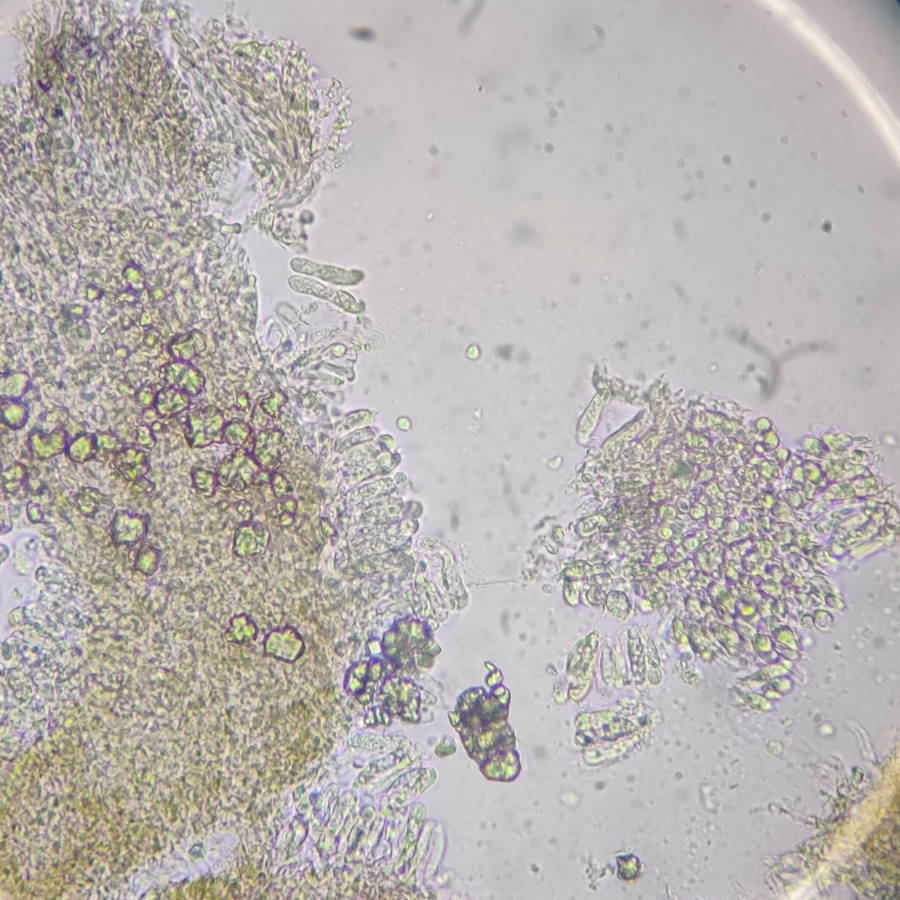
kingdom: Fungi
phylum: Basidiomycota
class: Agaricomycetes
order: Agaricales
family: Pleurotaceae
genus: Resupinatus
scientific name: Resupinatus poriaeformis
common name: tæpperør
